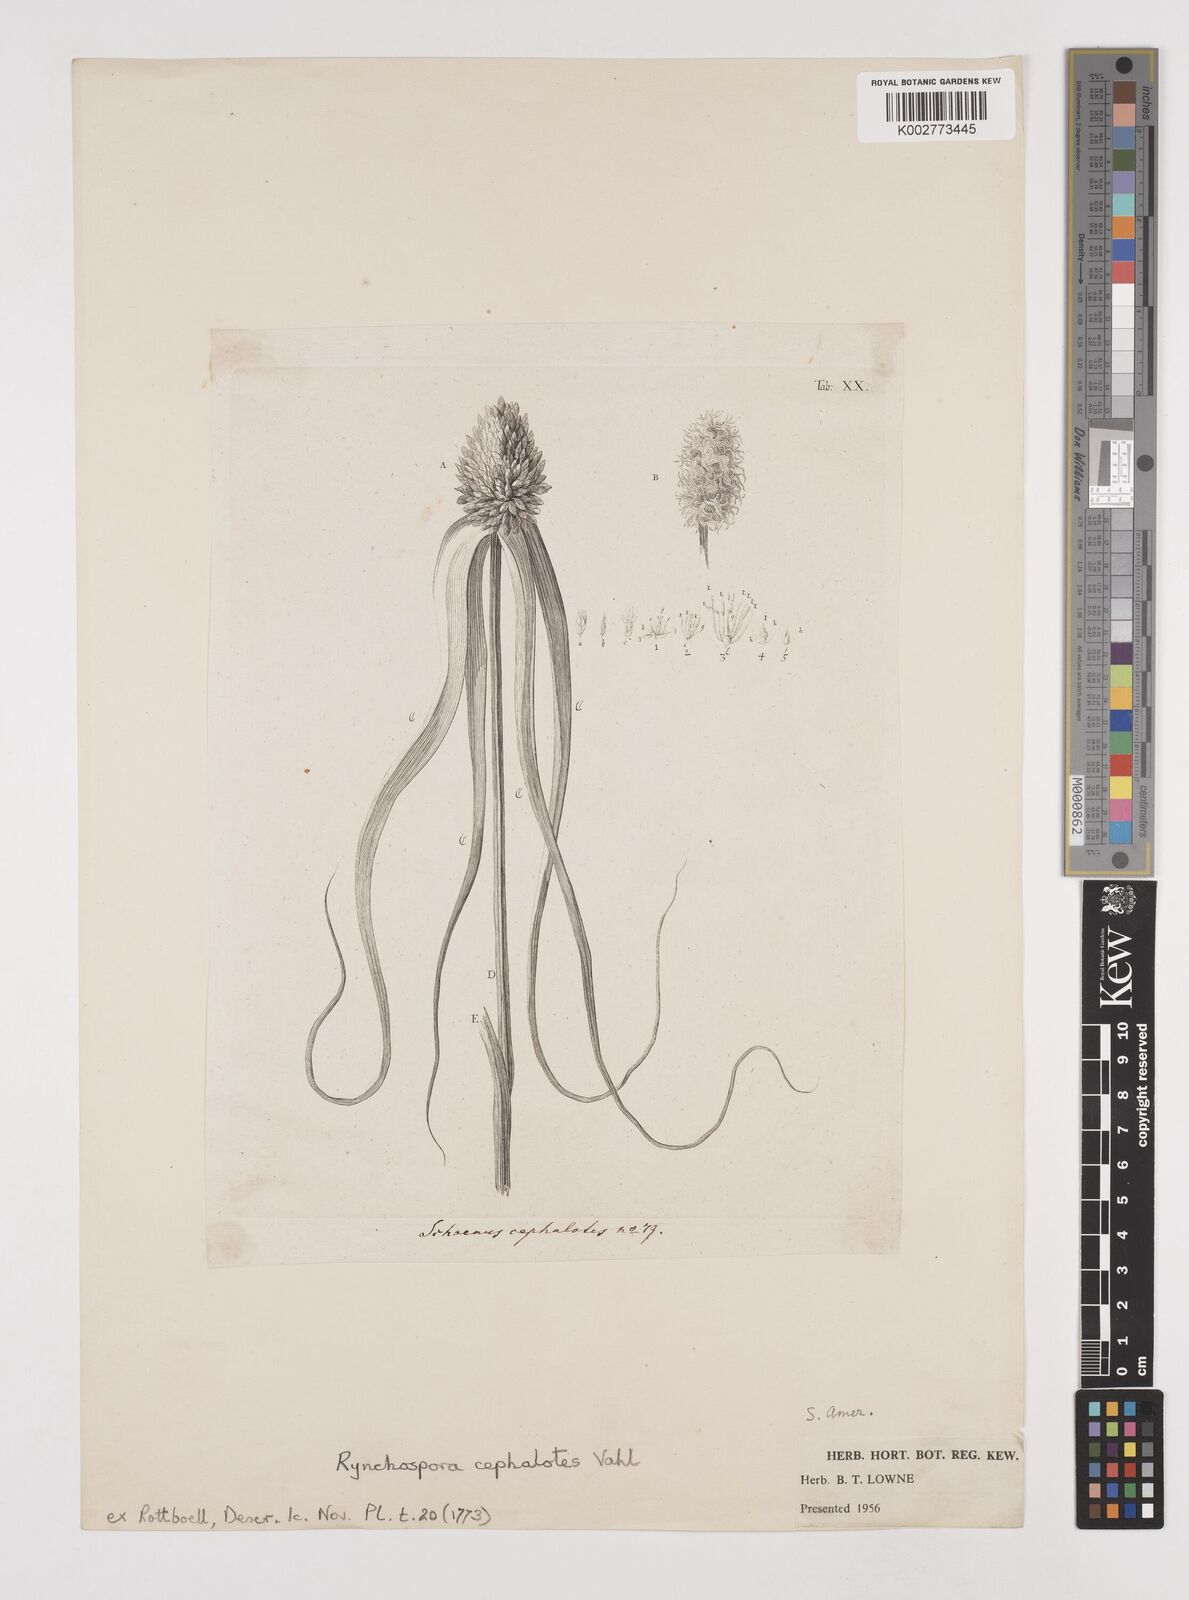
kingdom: Plantae
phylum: Tracheophyta
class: Liliopsida
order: Poales
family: Cyperaceae
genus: Rhynchospora
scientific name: Rhynchospora cephalotes
